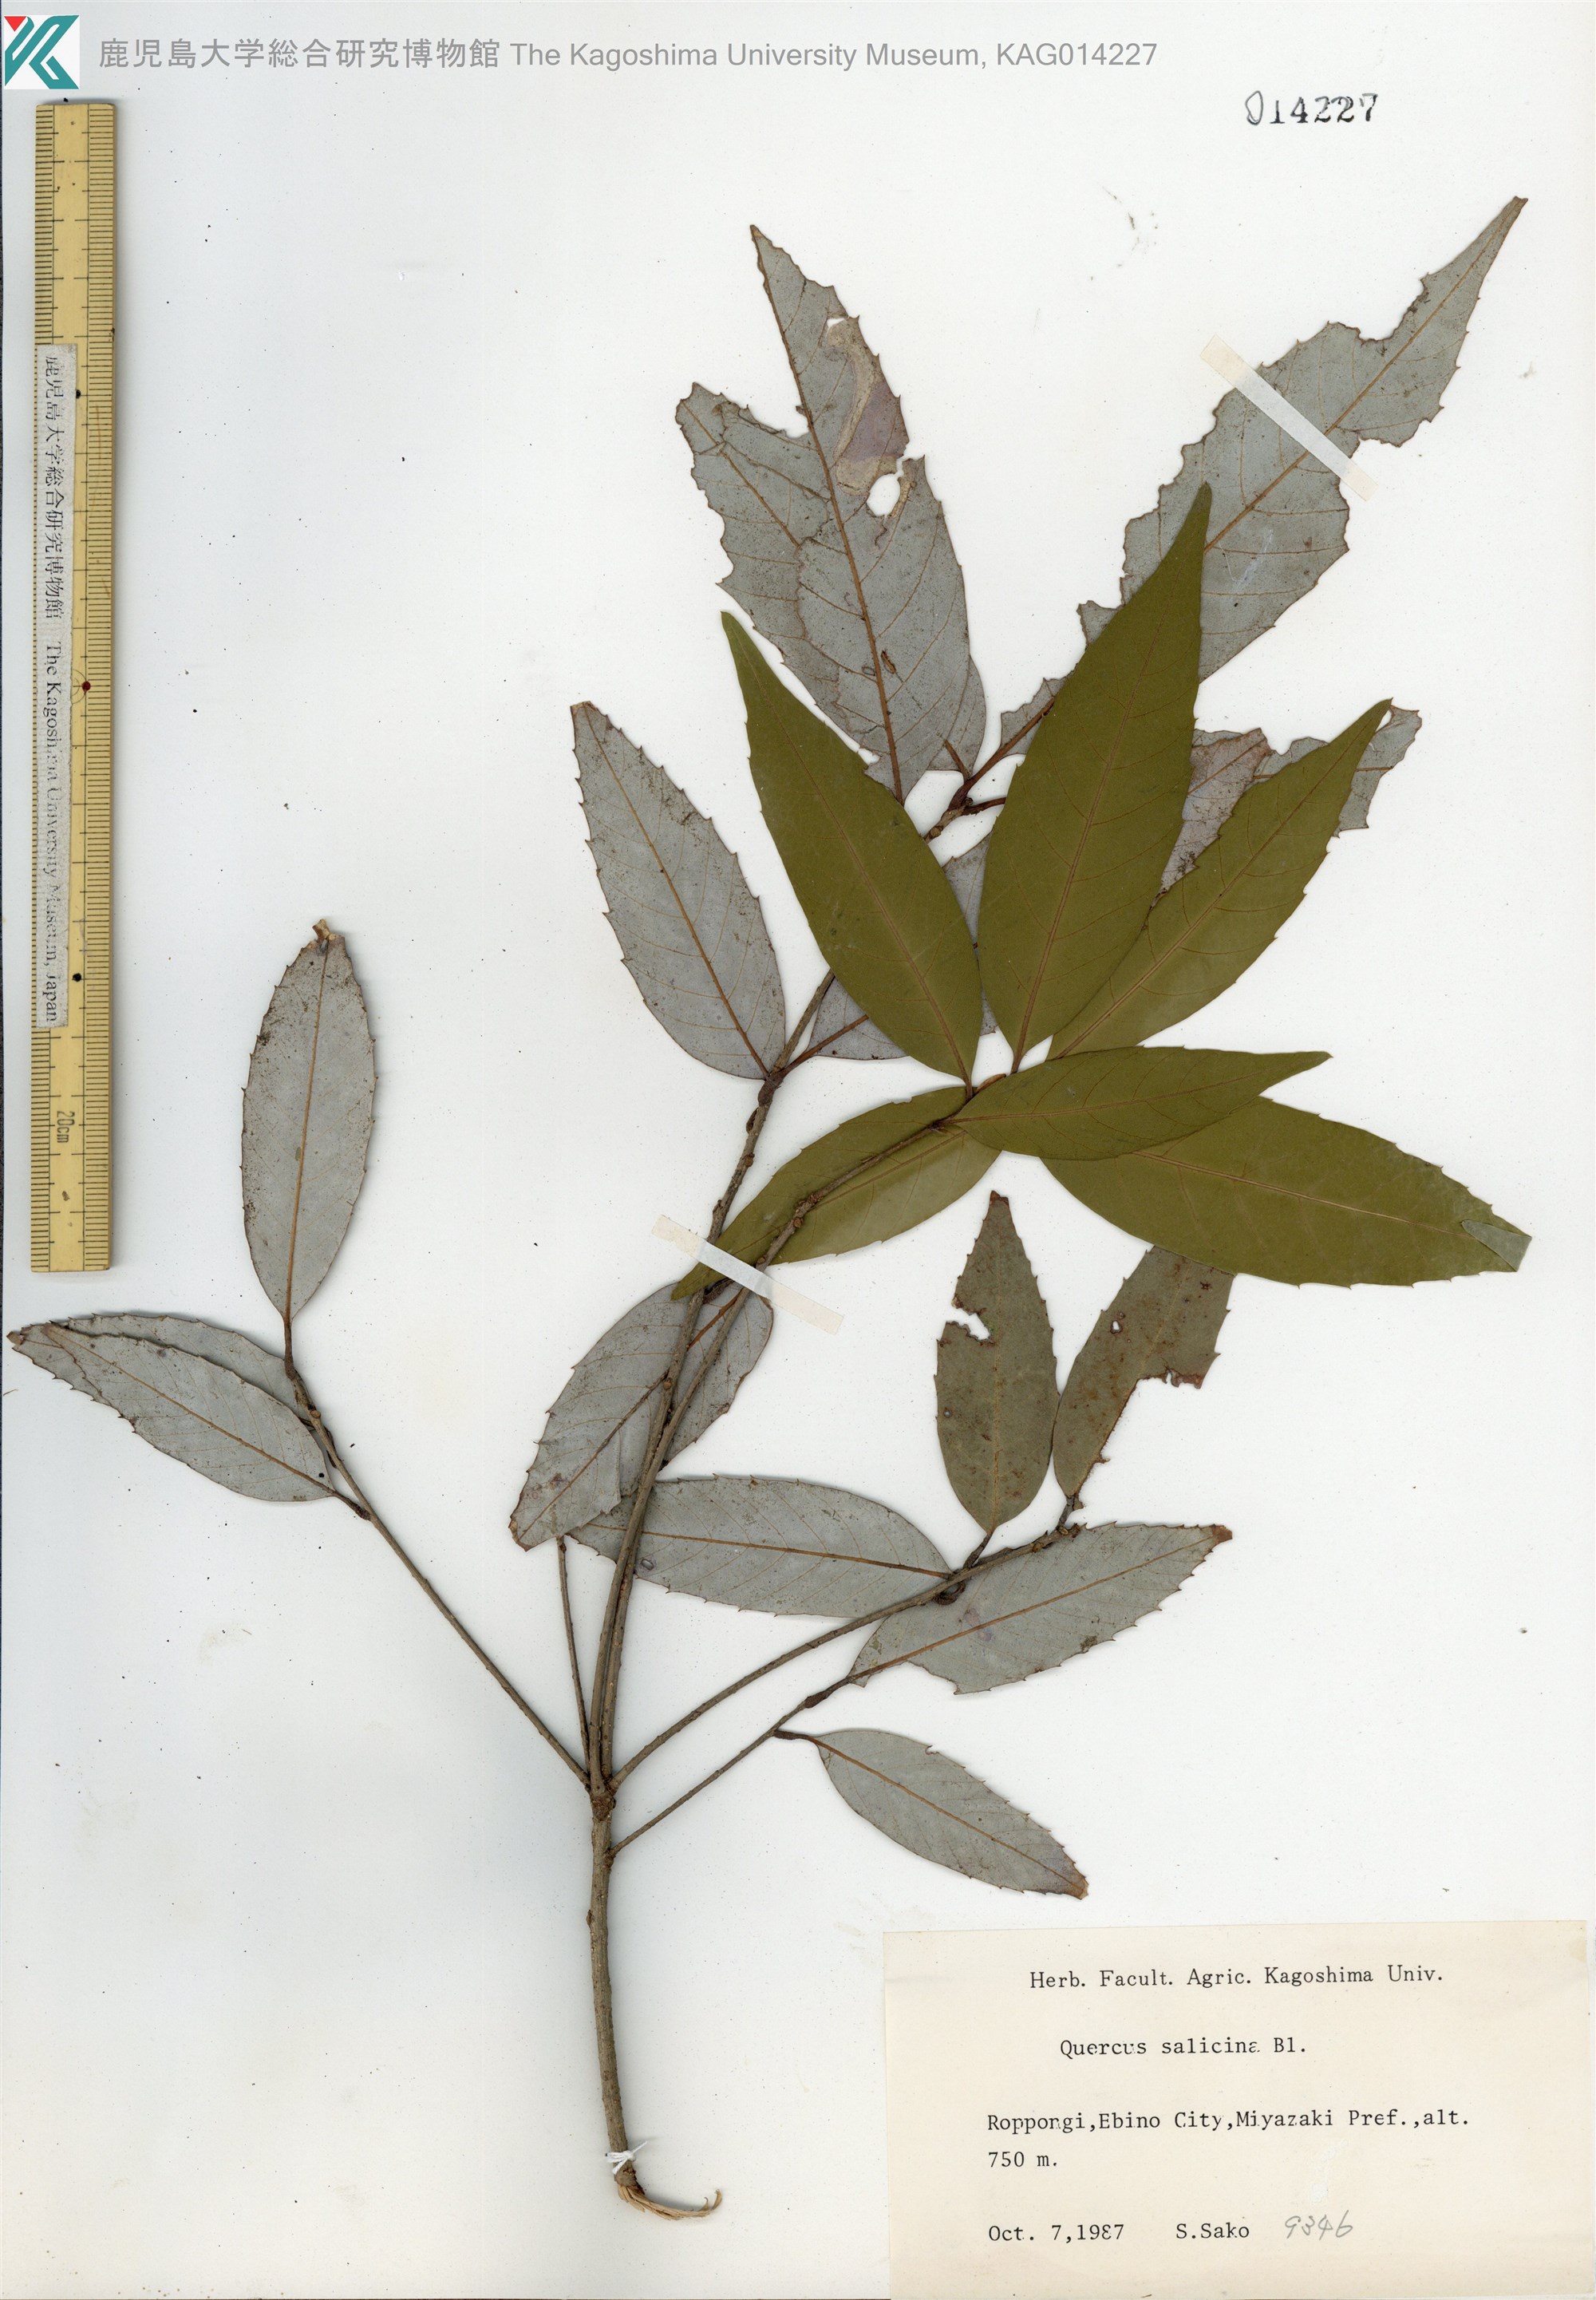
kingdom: Plantae
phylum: Tracheophyta
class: Magnoliopsida
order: Fagales
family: Fagaceae
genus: Quercus
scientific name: Quercus salicina
